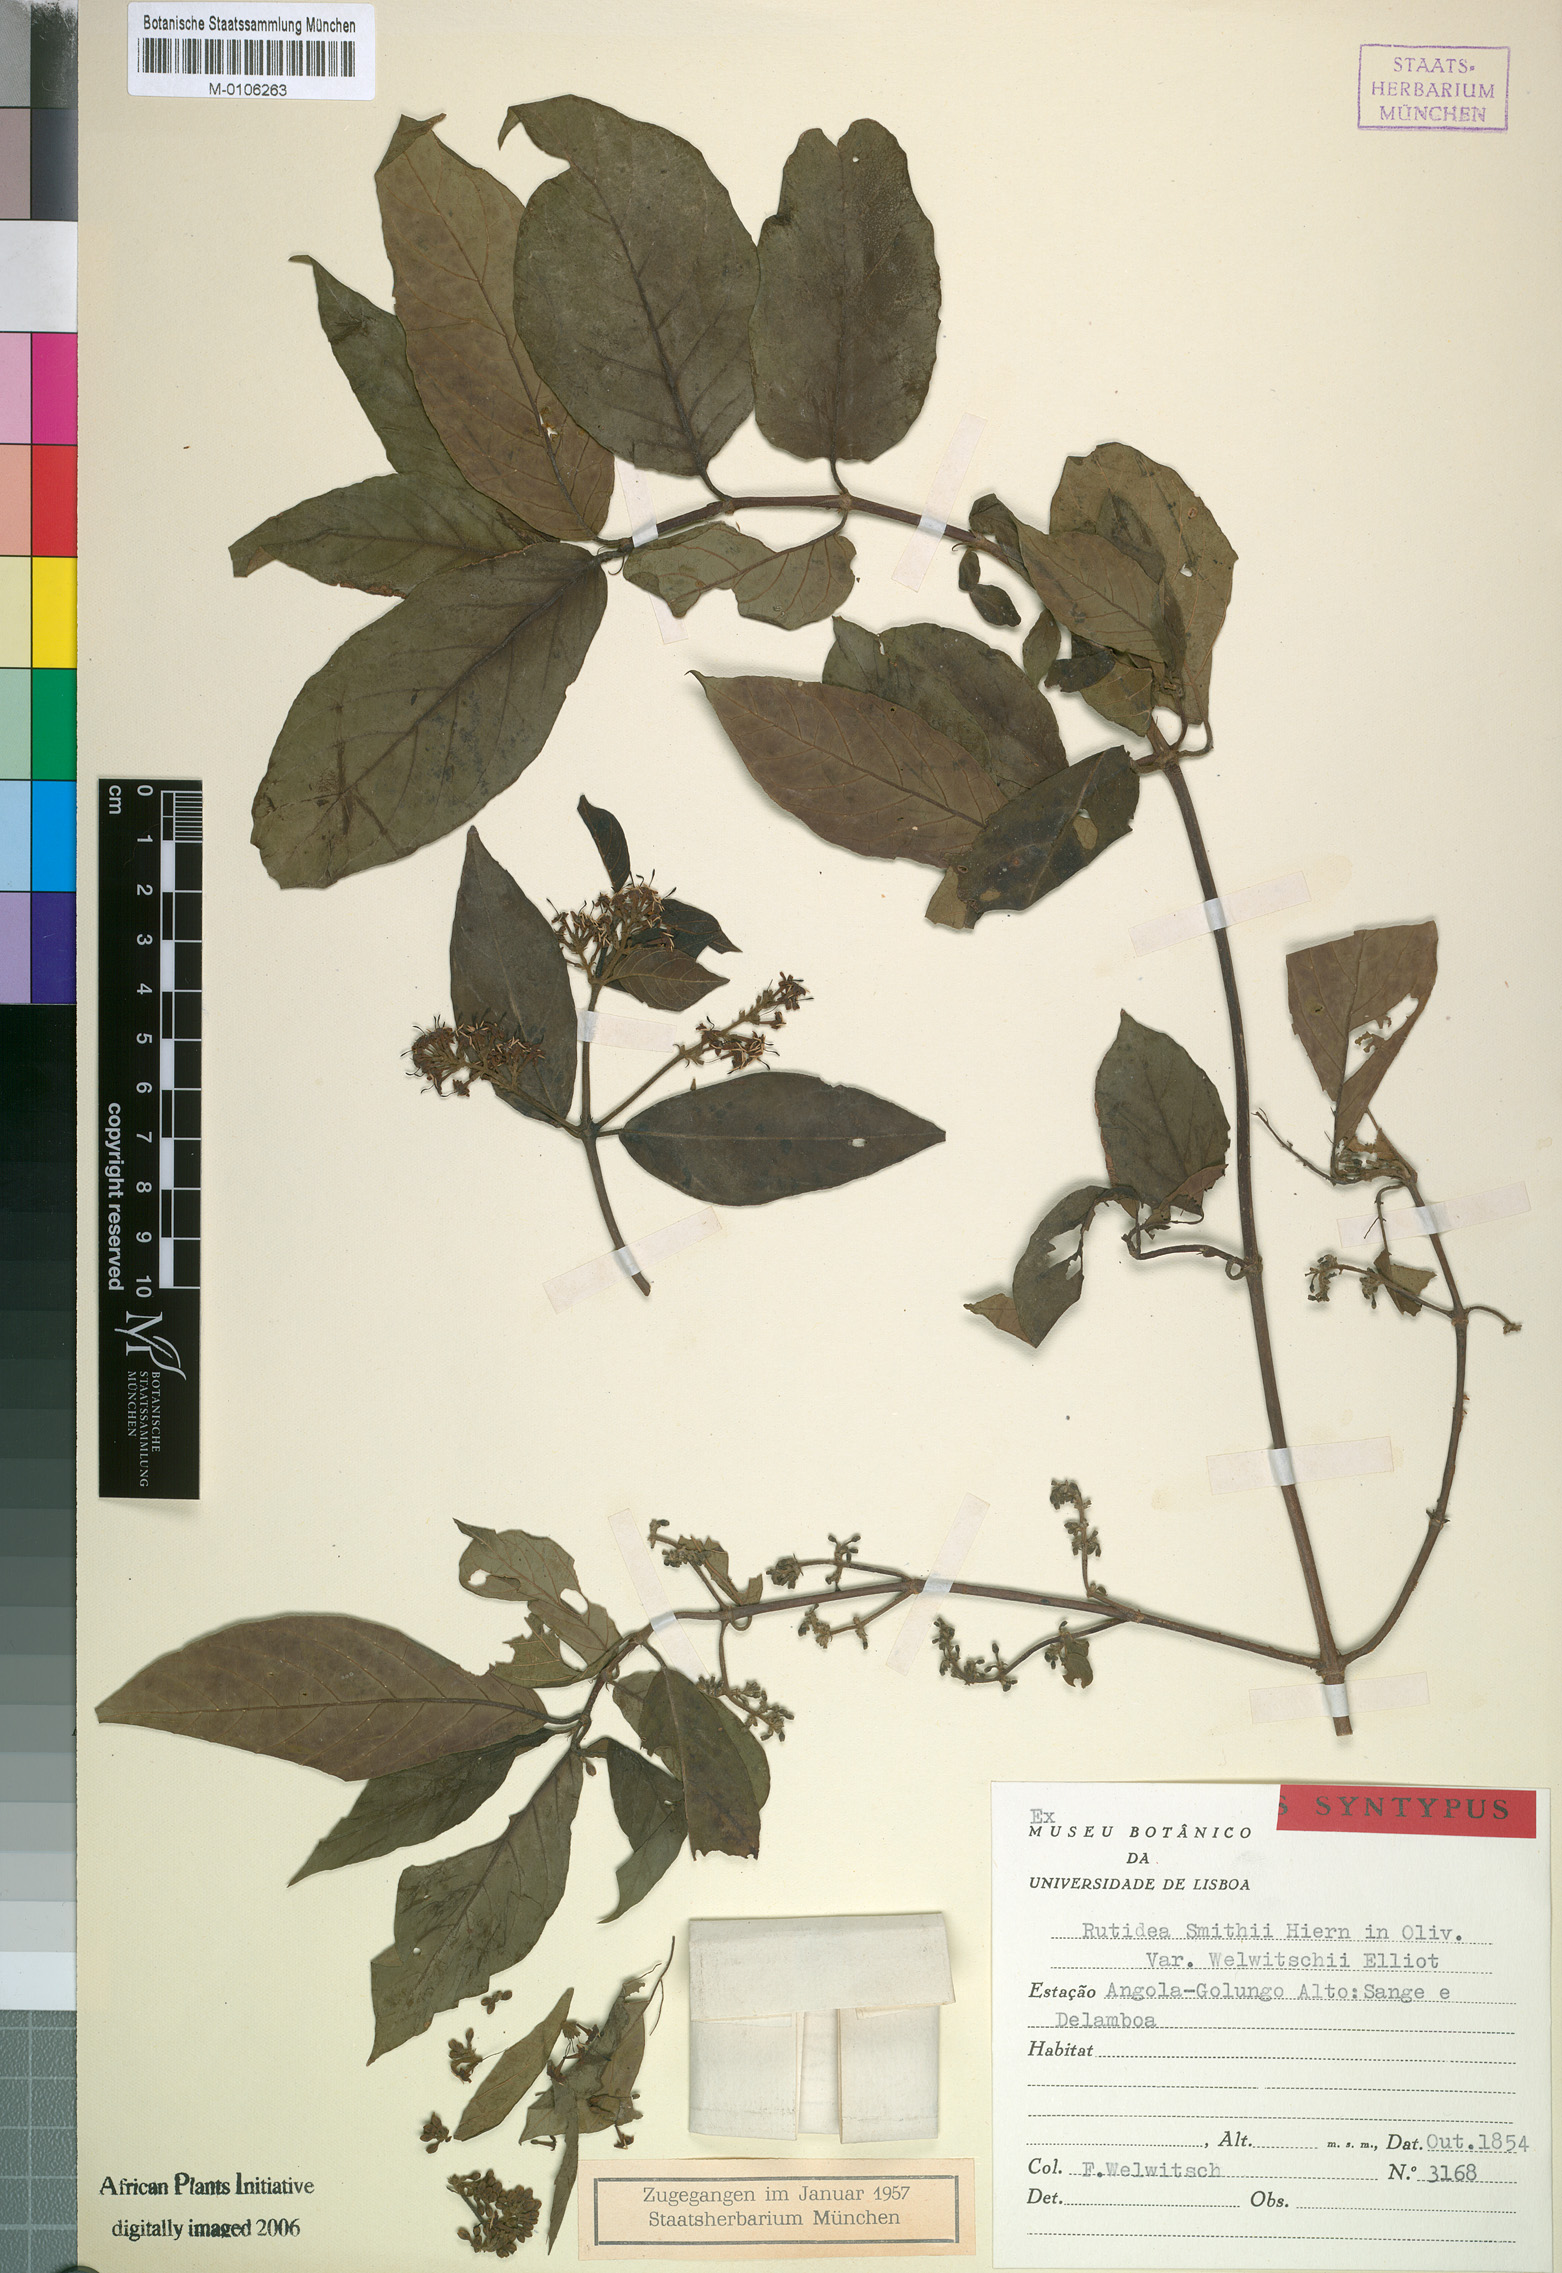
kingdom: Plantae
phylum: Tracheophyta
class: Magnoliopsida
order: Gentianales
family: Rubiaceae
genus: Rutidea
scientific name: Rutidea smithii
